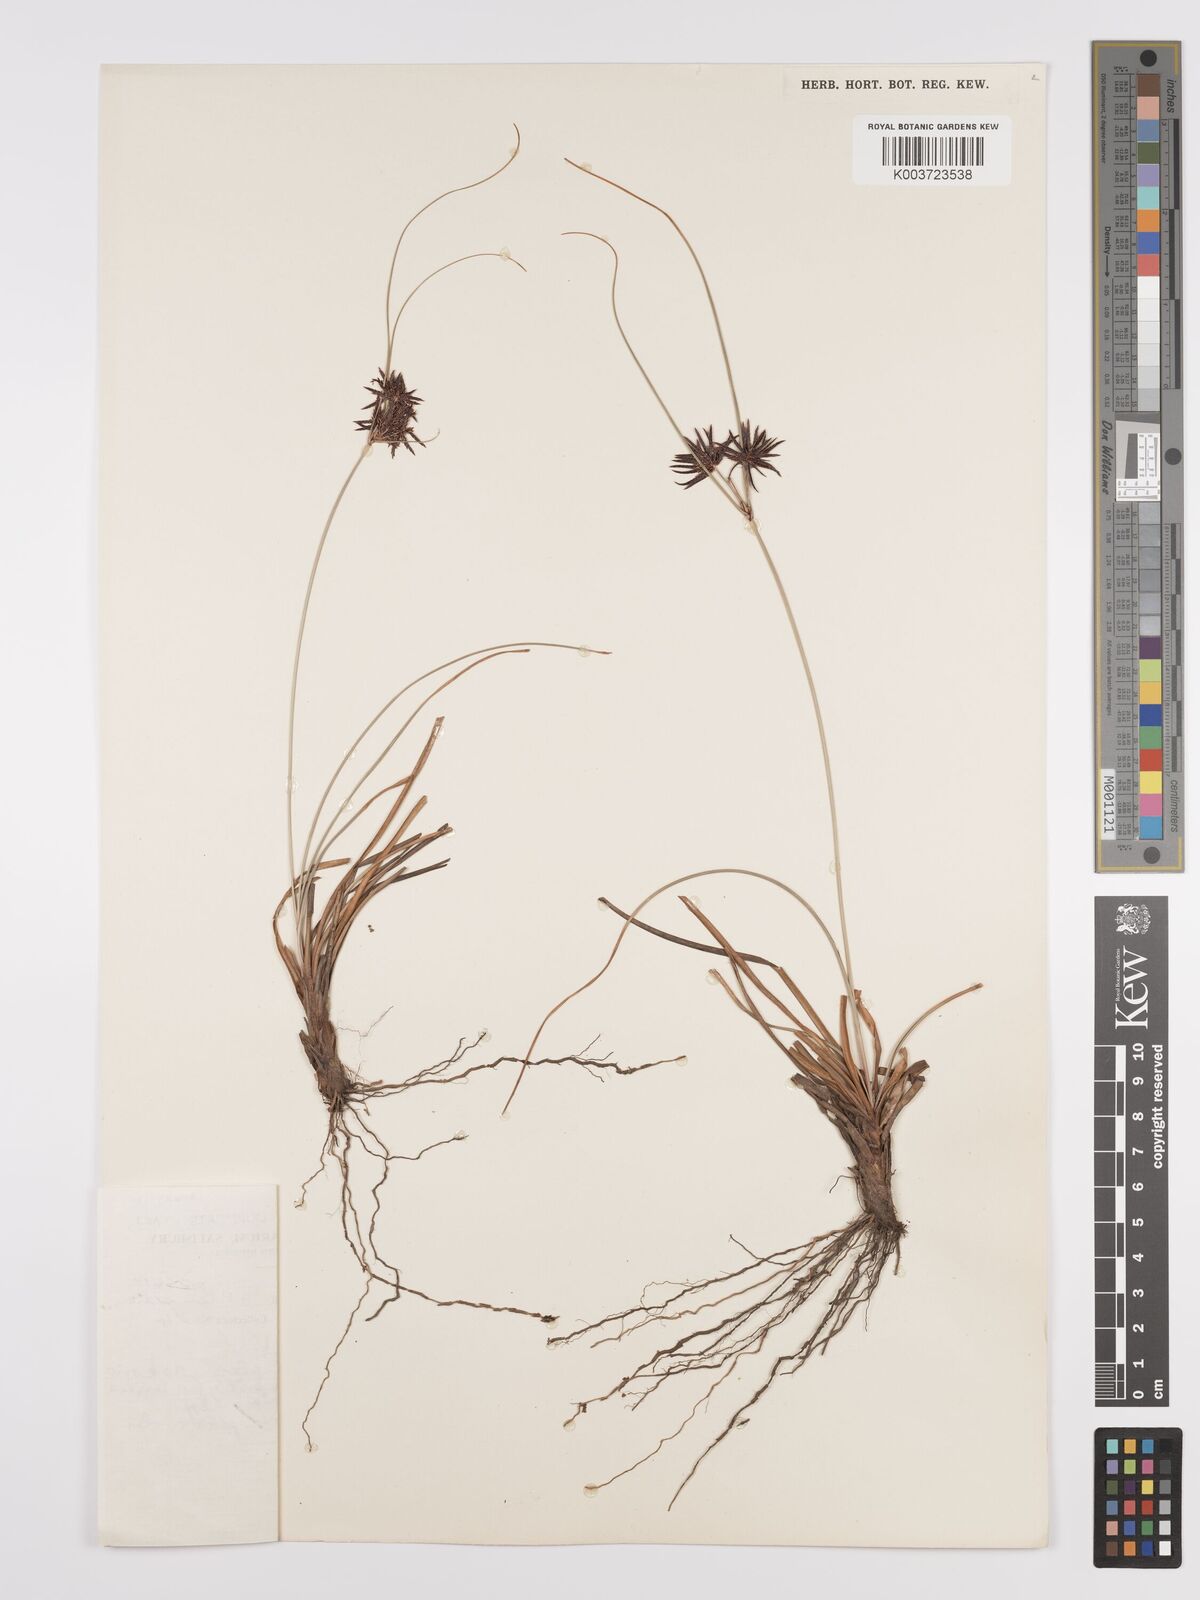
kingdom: Plantae
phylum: Tracheophyta
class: Liliopsida
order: Poales
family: Cyperaceae
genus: Cyperus
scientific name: Cyperus tenax
